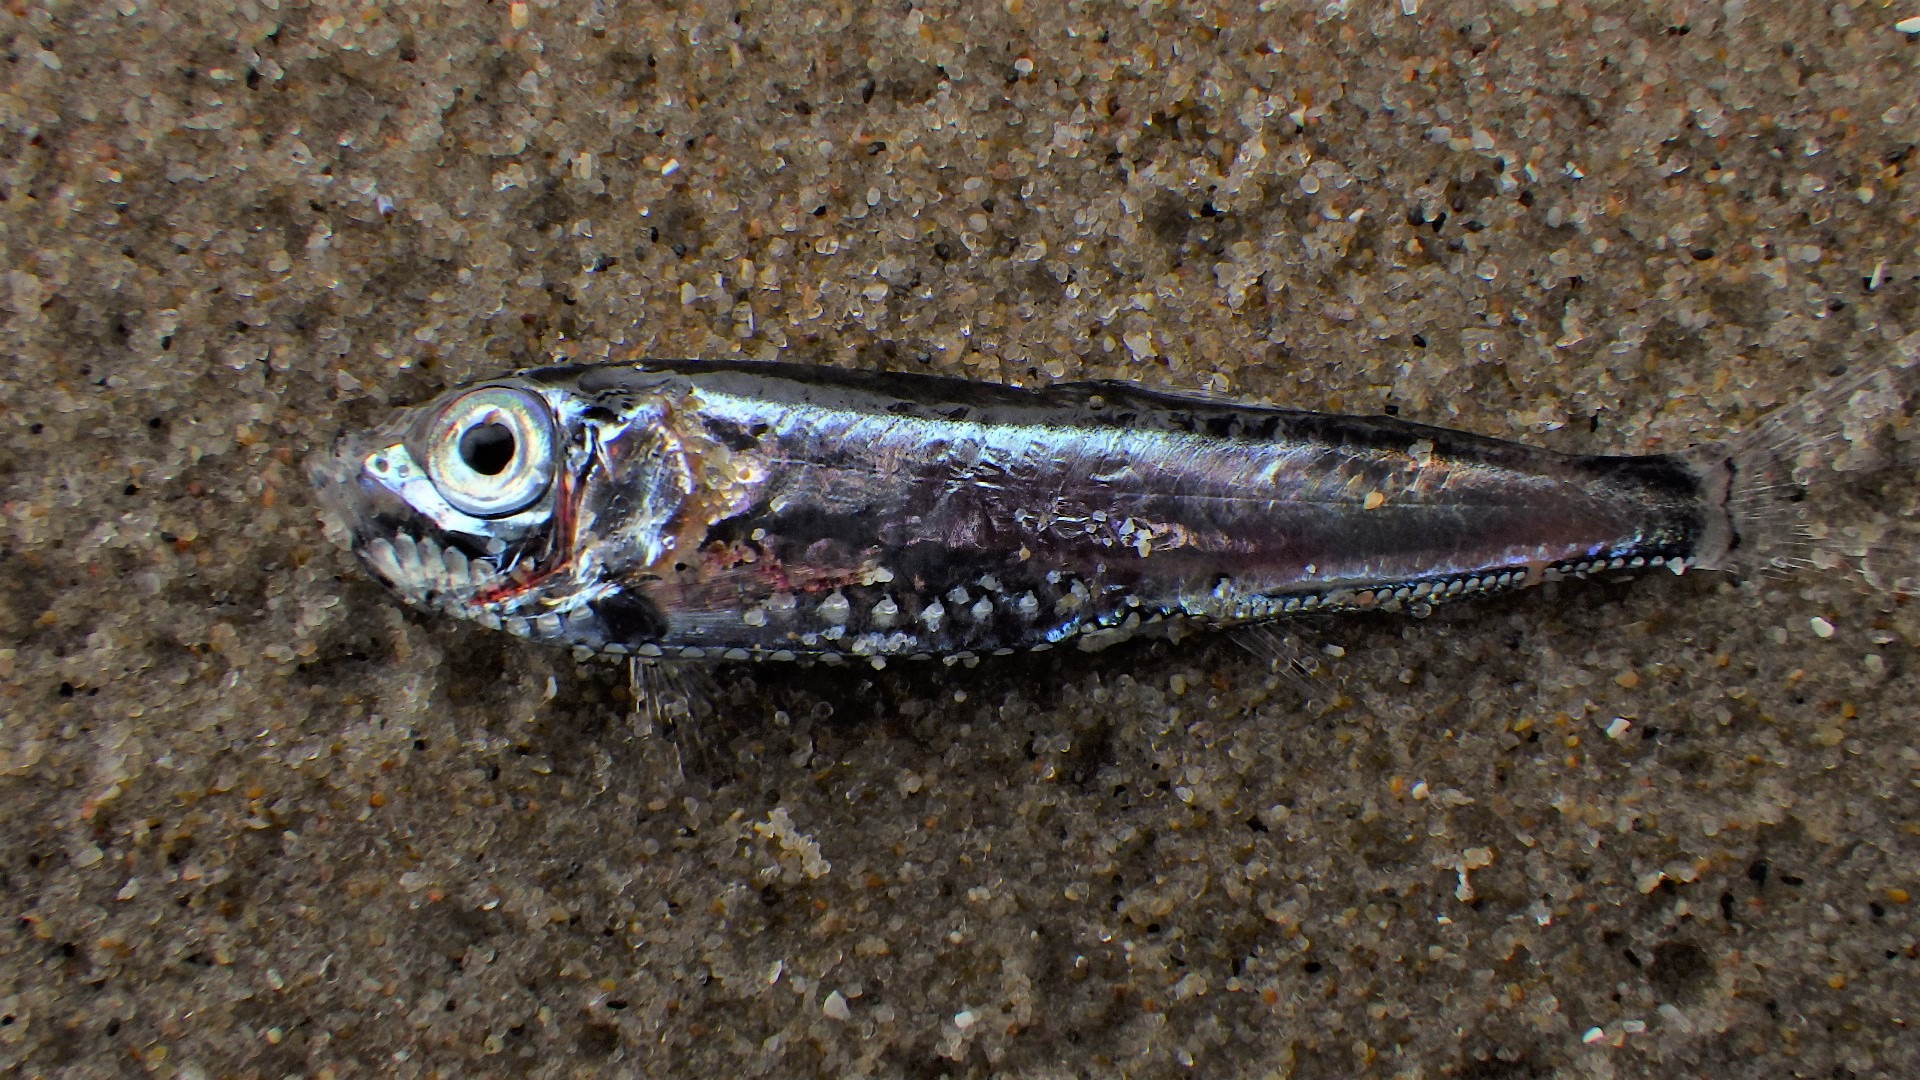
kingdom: Animalia
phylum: Chordata
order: Stomiiformes
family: Sternoptychidae
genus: Maurolicus
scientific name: Maurolicus muelleri
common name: Müllers laksesild
